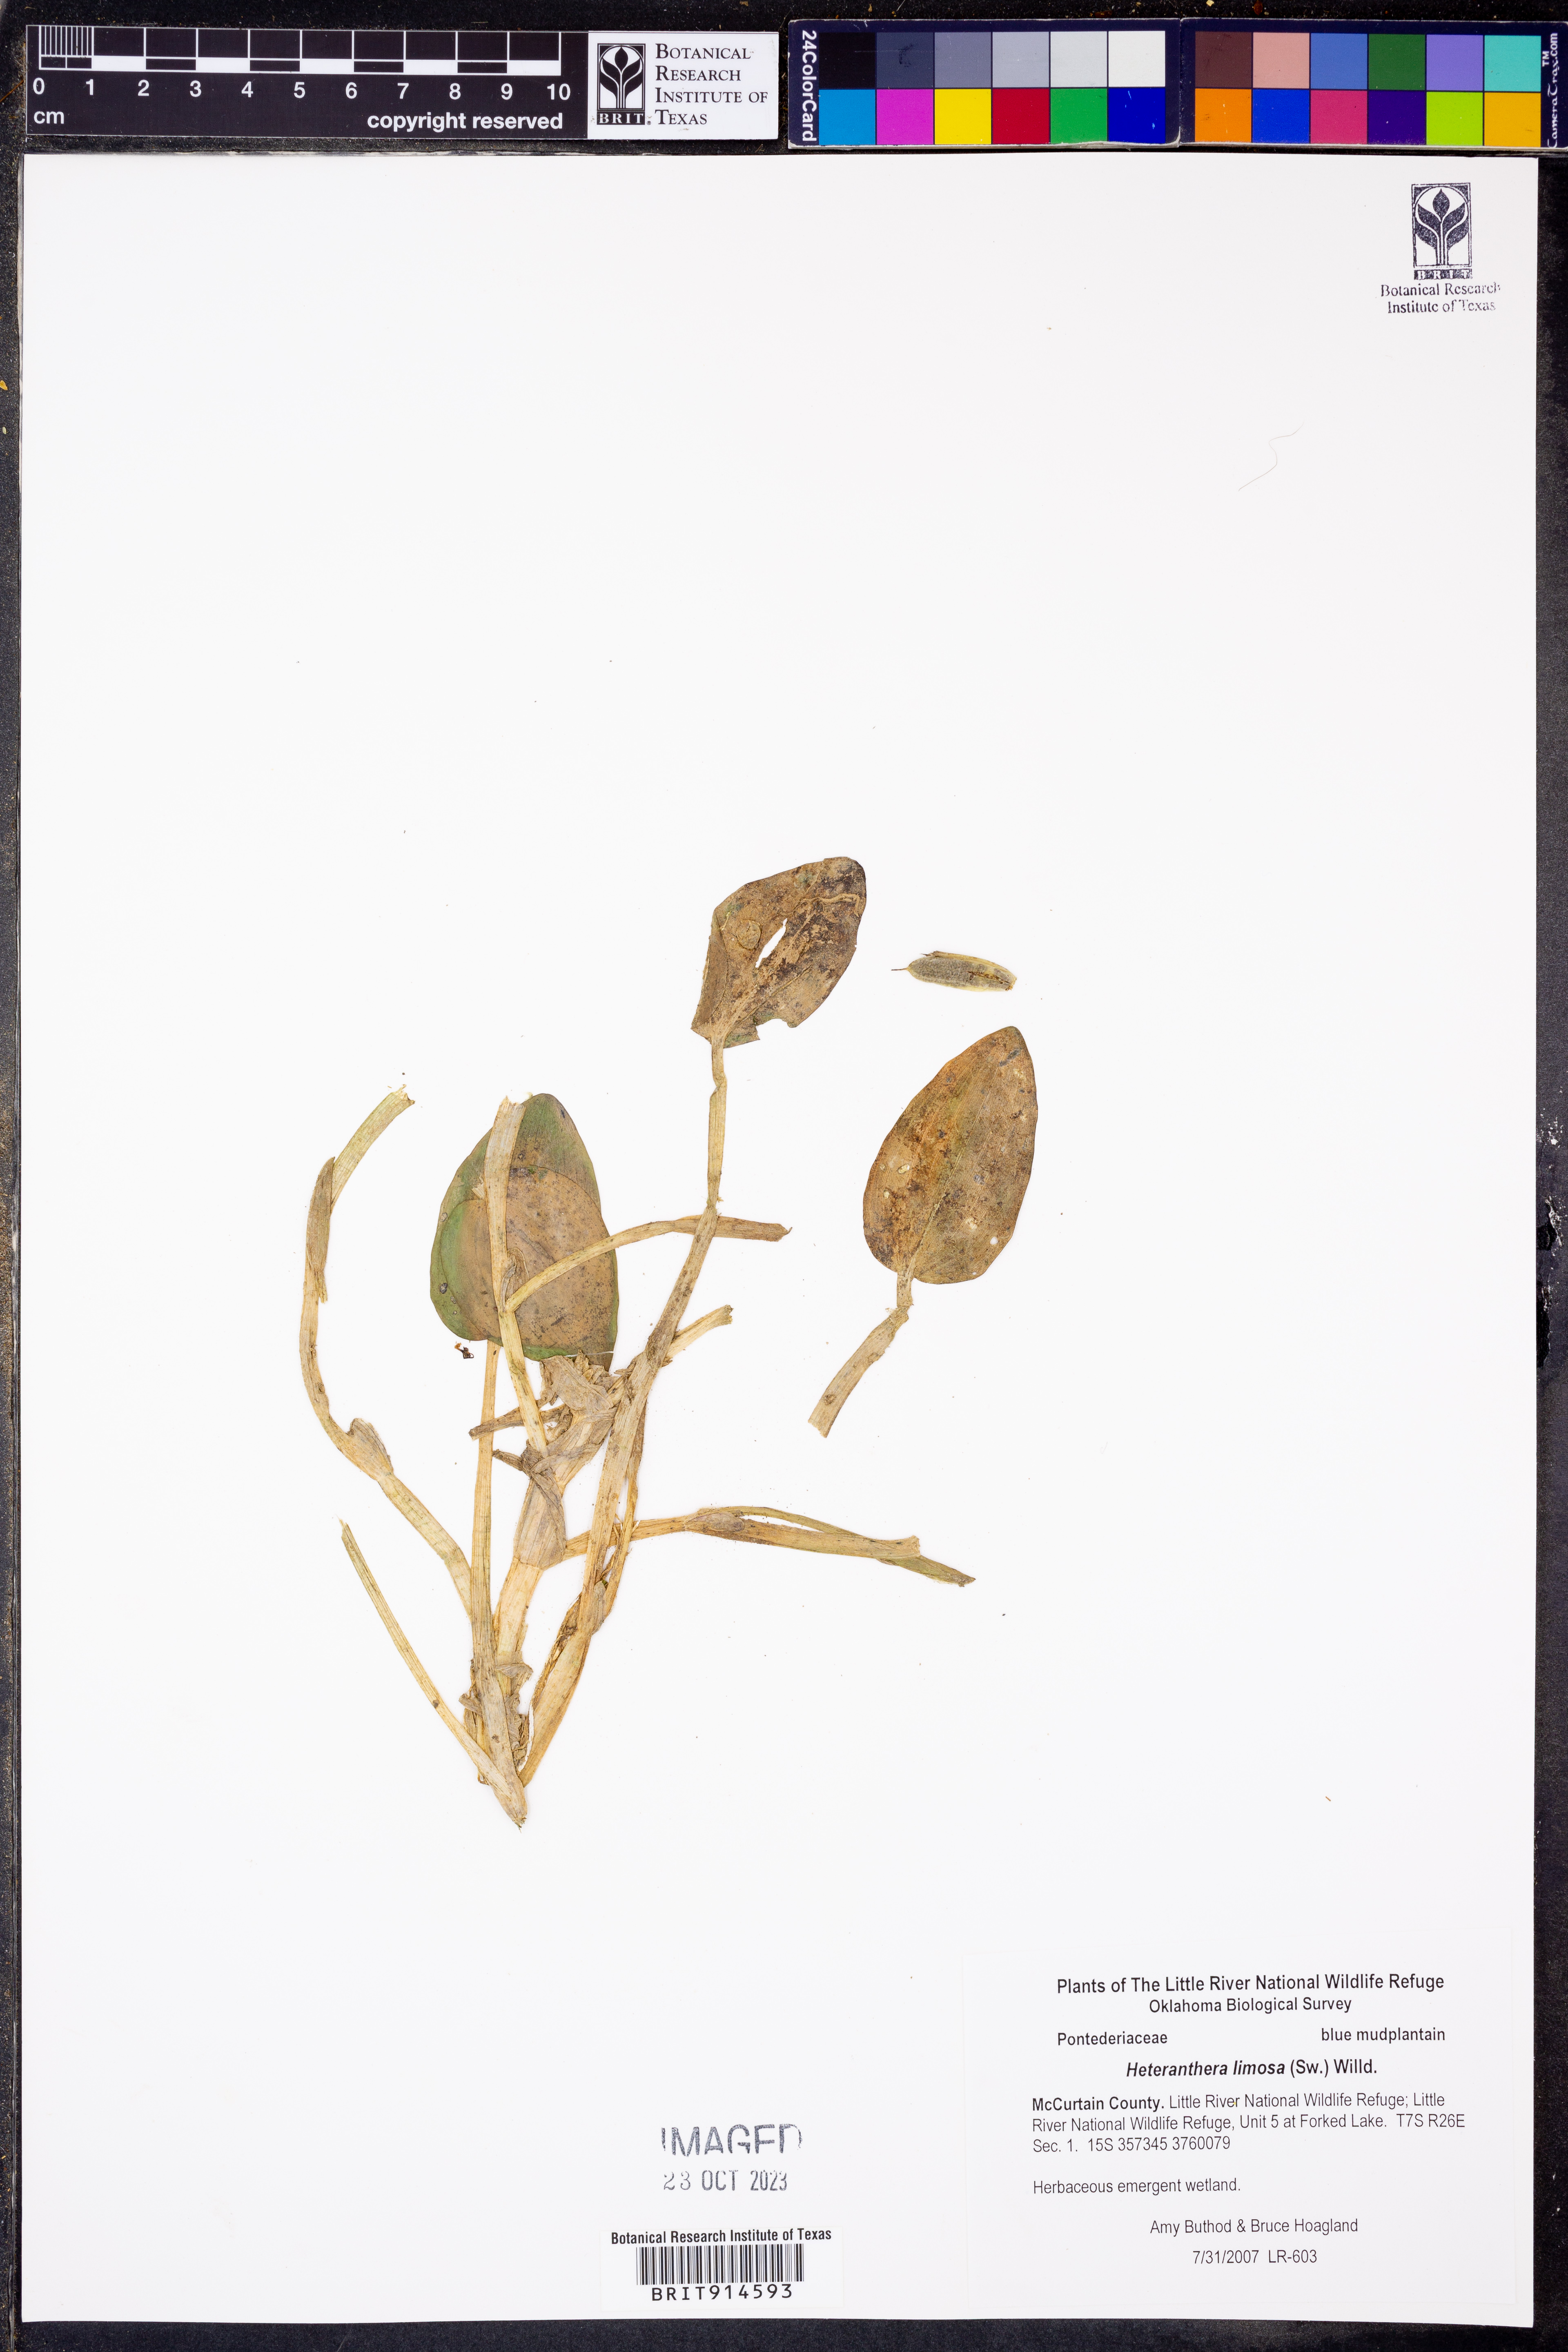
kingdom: Plantae
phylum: Tracheophyta
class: Liliopsida
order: Commelinales
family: Pontederiaceae
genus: Heteranthera
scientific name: Heteranthera limosa
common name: Blue mud-plantain
